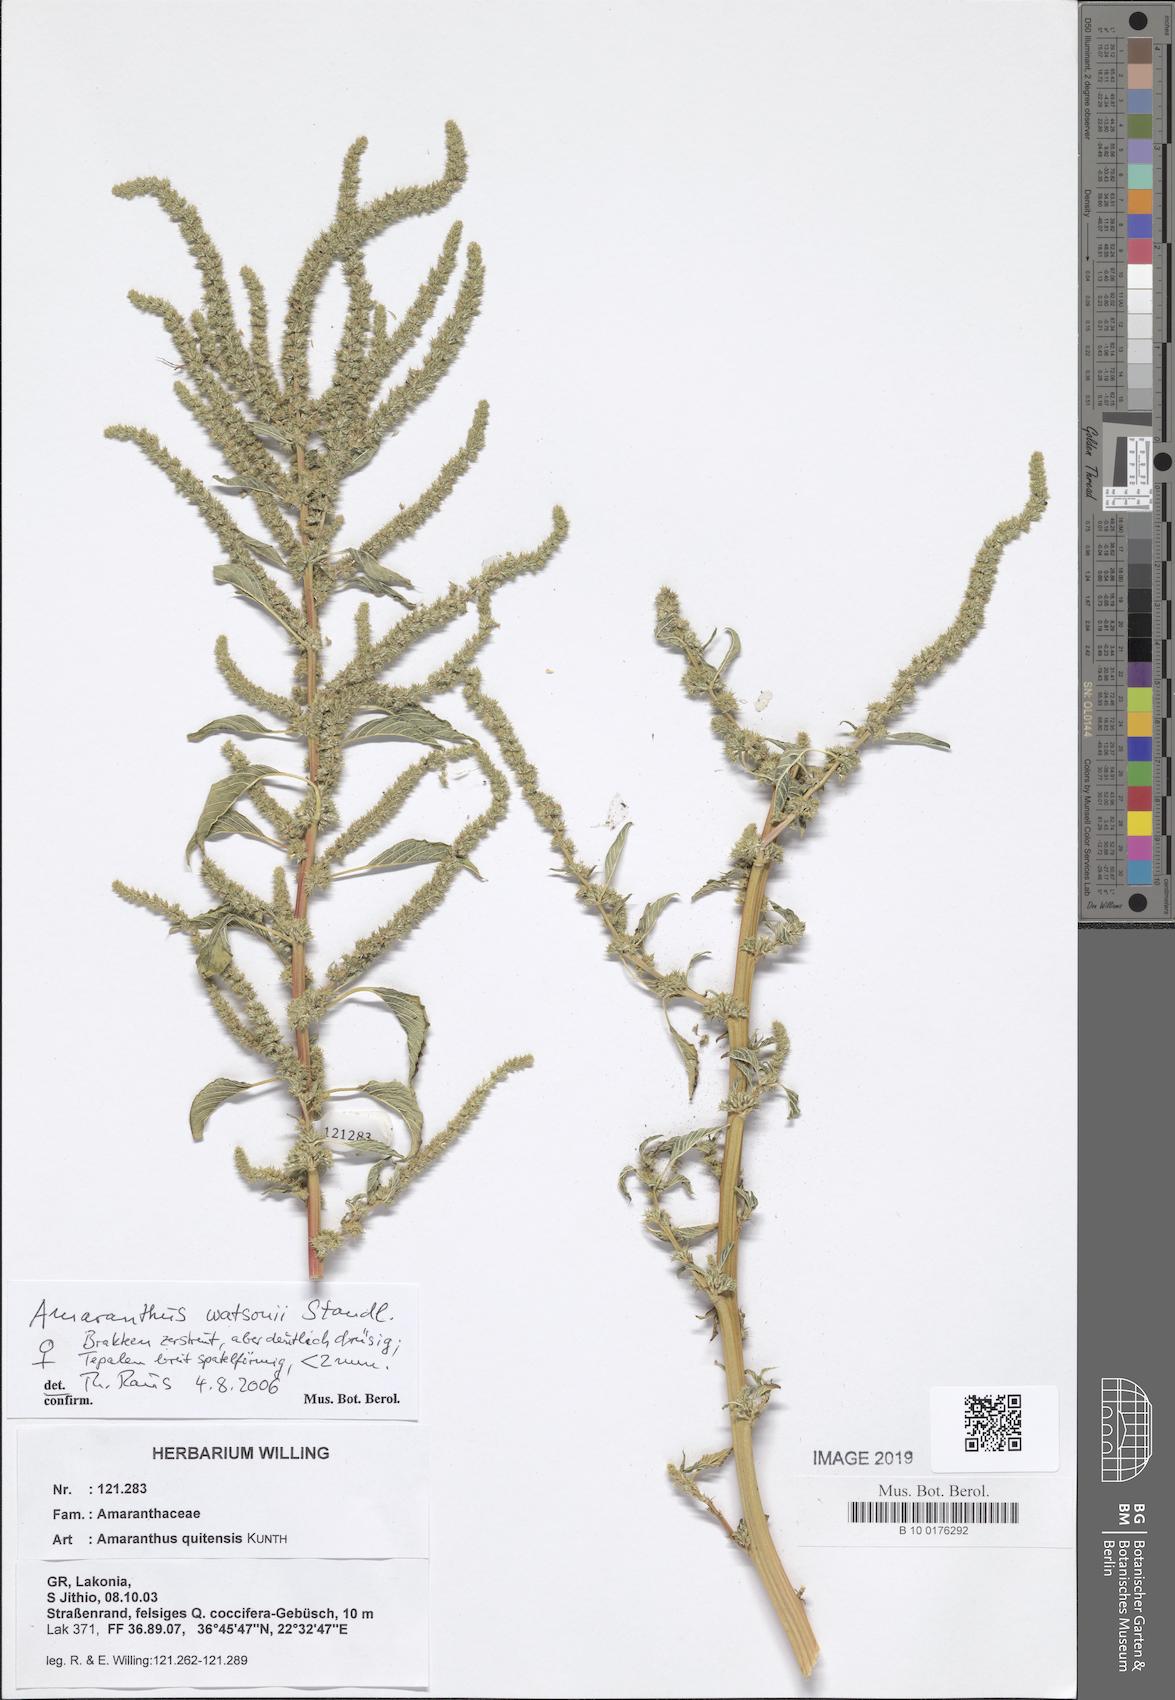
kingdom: Plantae
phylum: Tracheophyta
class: Magnoliopsida
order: Caryophyllales
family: Amaranthaceae
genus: Amaranthus
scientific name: Amaranthus quitensis
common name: Mucronate amaranth
